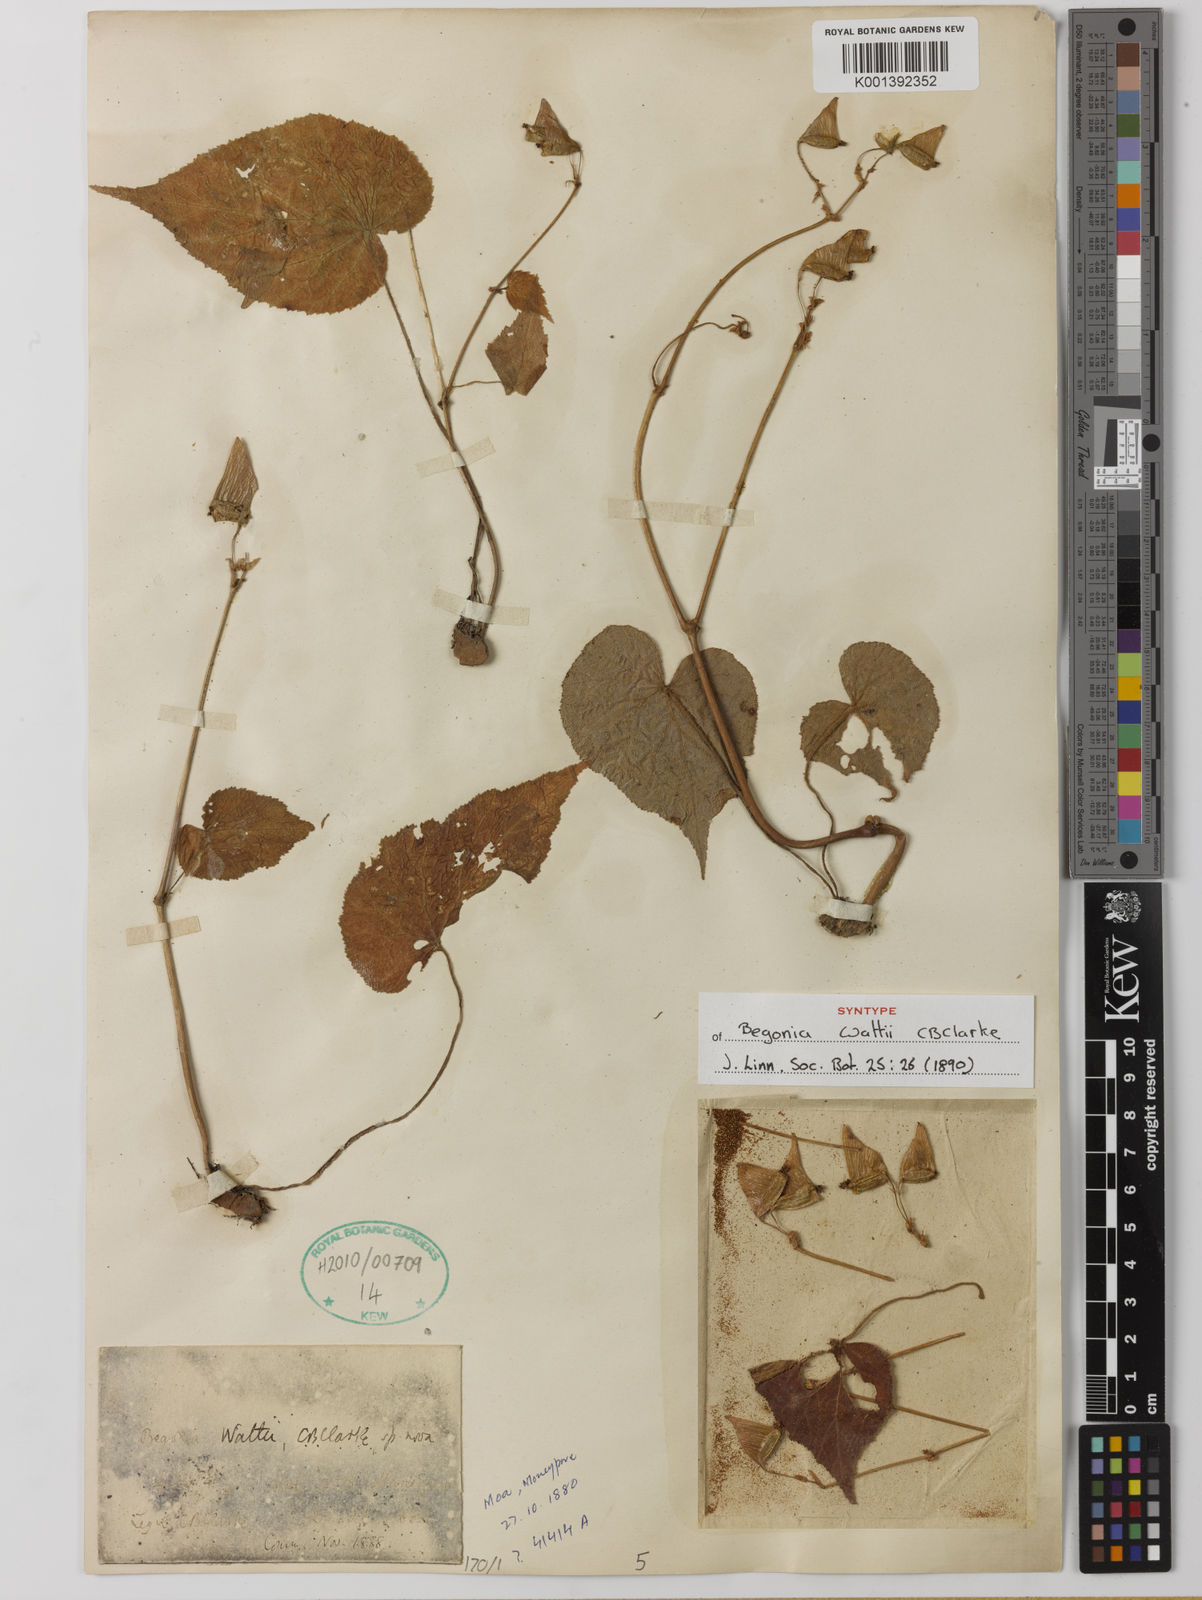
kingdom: Plantae
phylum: Tracheophyta
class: Magnoliopsida
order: Cucurbitales
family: Begoniaceae
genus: Begonia
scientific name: Begonia wattii
